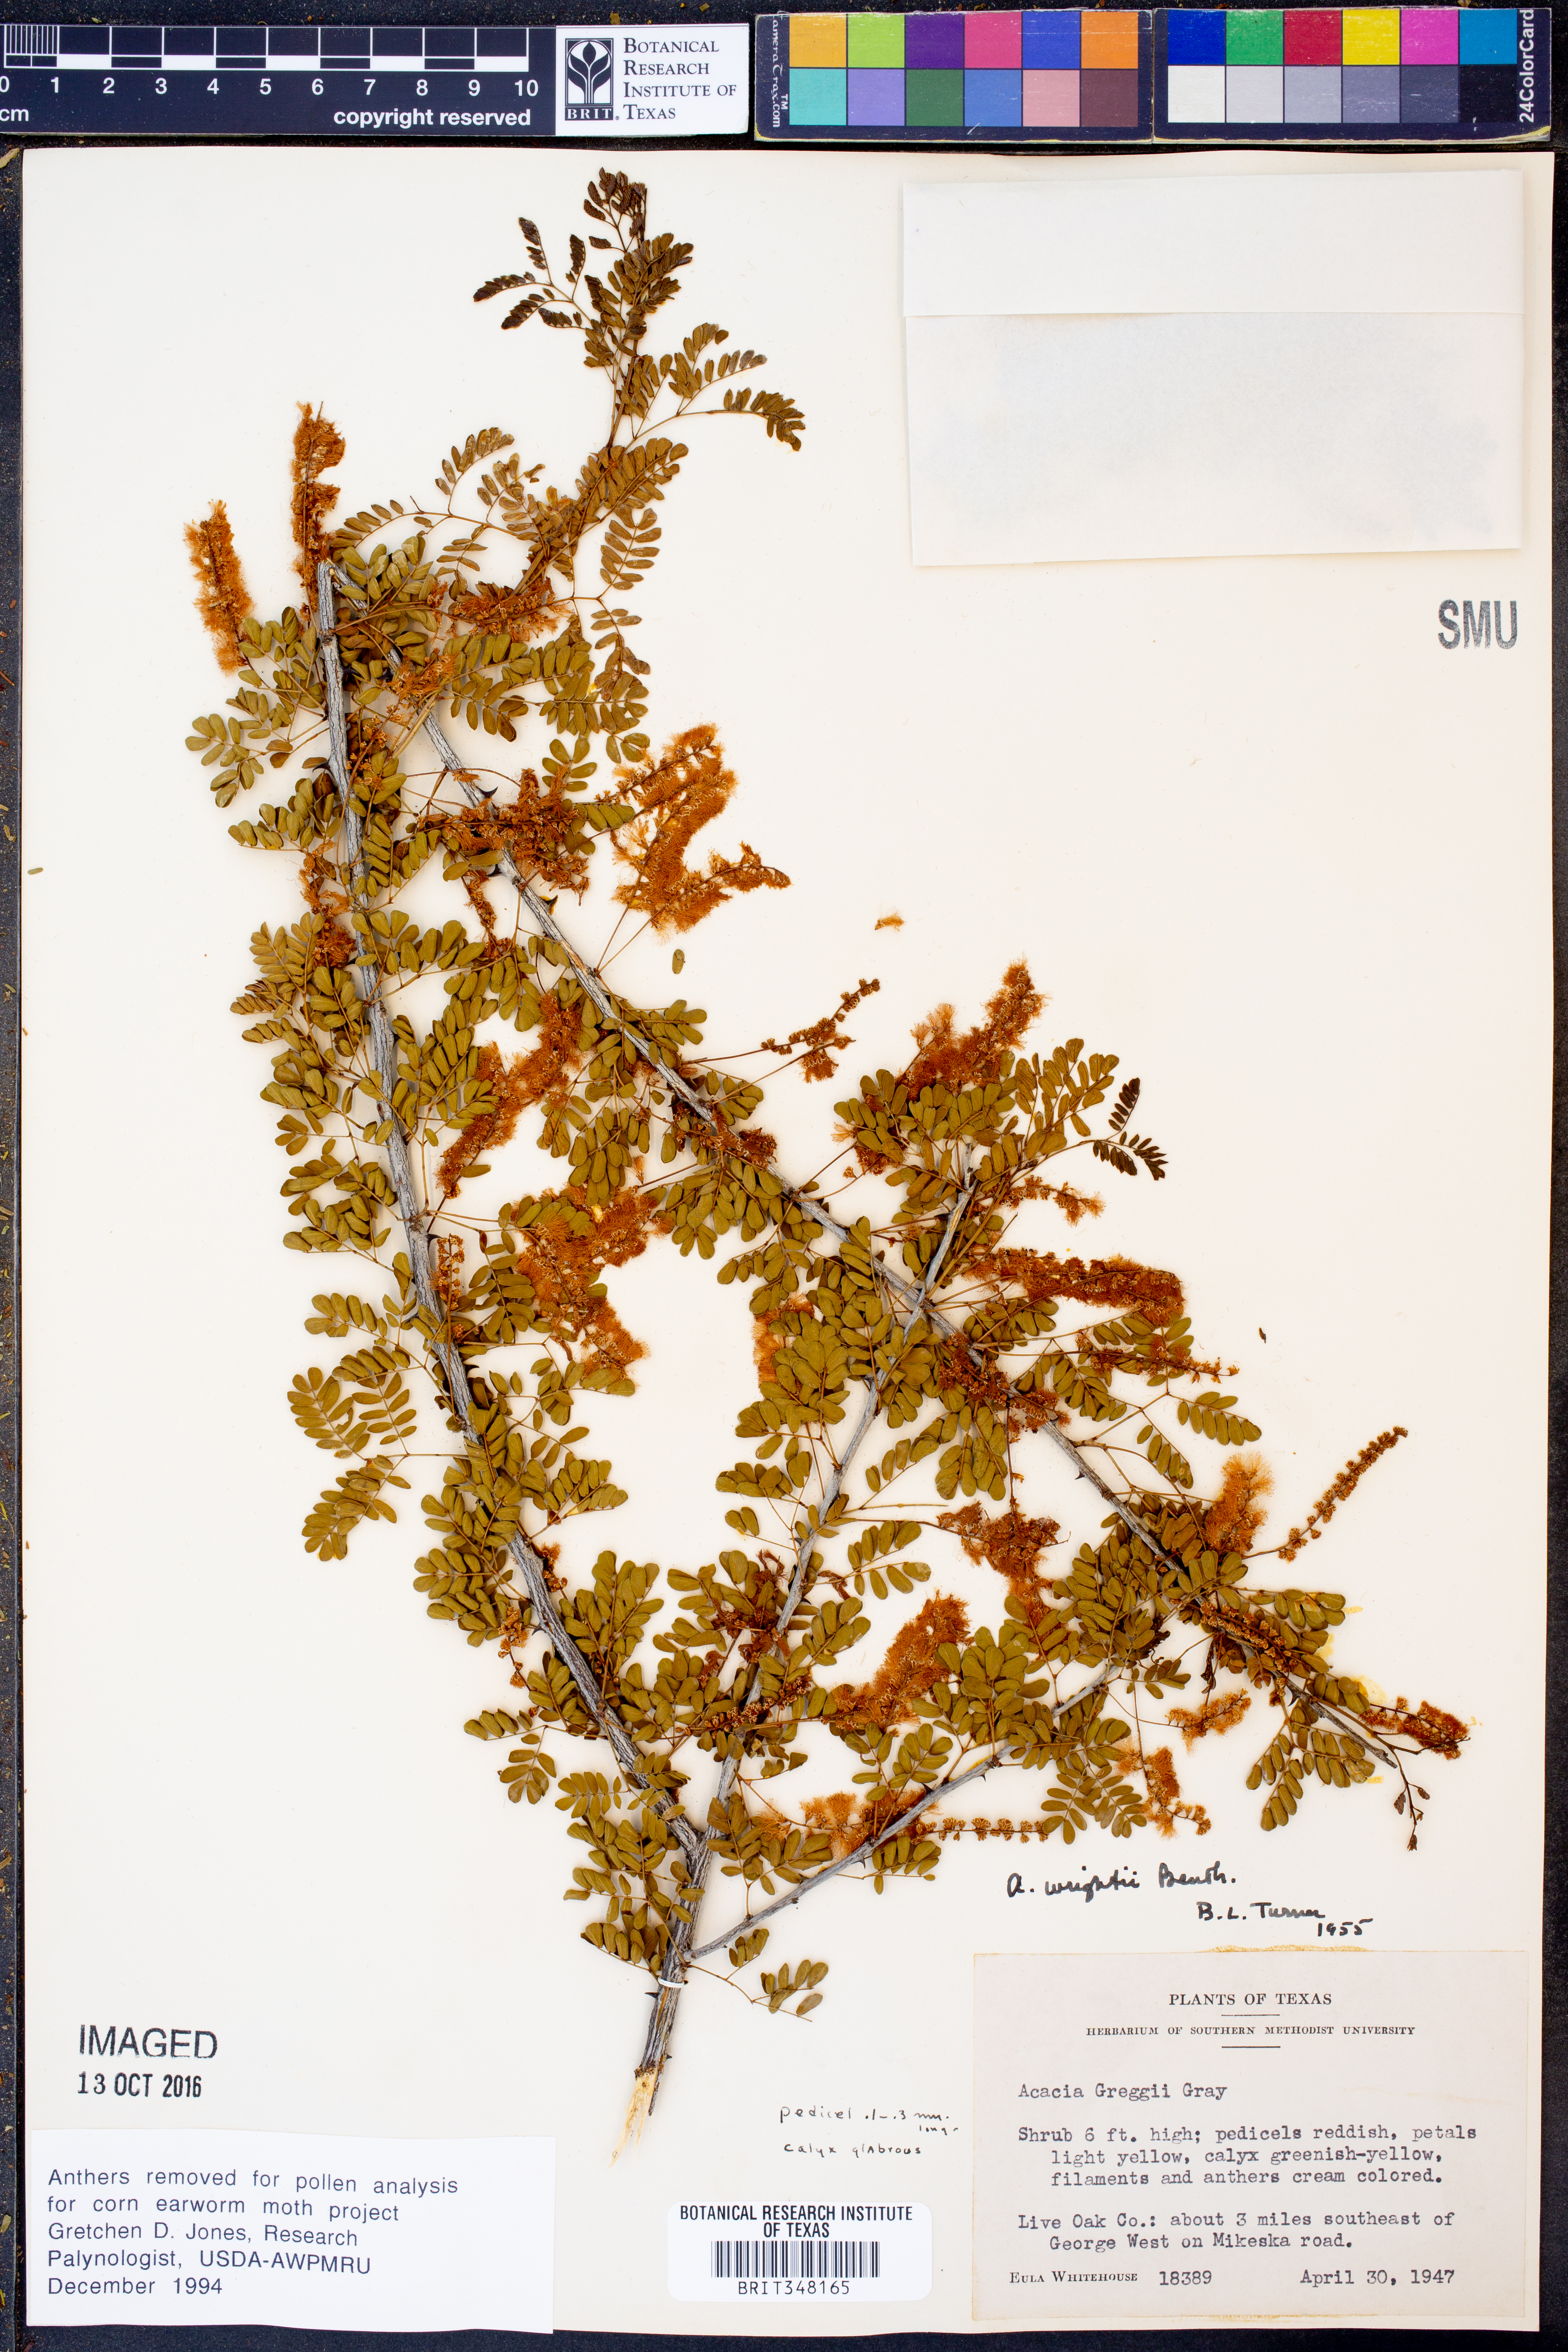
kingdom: Plantae
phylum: Tracheophyta
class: Magnoliopsida
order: Fabales
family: Fabaceae
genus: Senegalia
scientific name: Senegalia wrightii
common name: Texas cat's-claw
